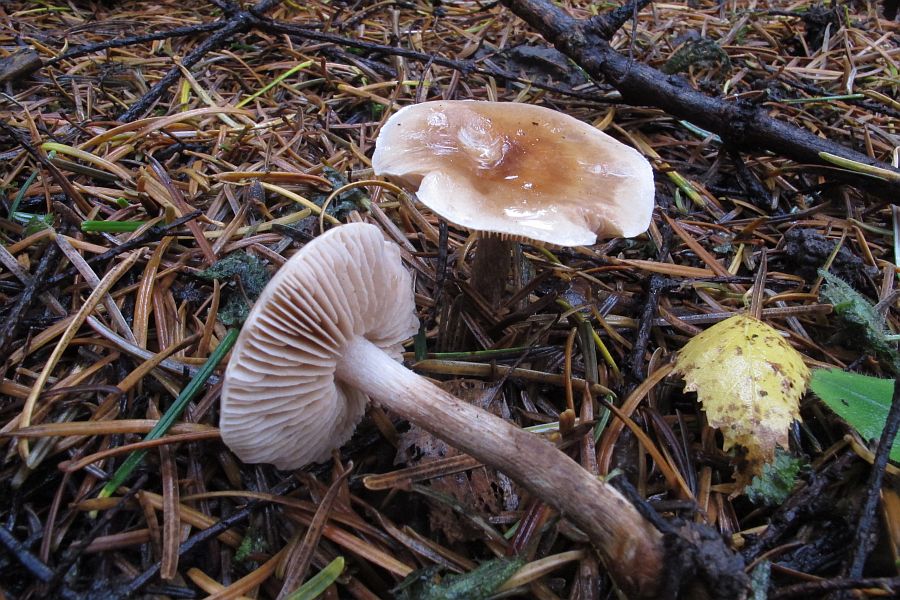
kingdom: Fungi
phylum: Basidiomycota
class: Agaricomycetes
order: Agaricales
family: Hymenogastraceae
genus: Hebeloma
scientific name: Hebeloma mesophaeum
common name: lerbrun tåreblad
